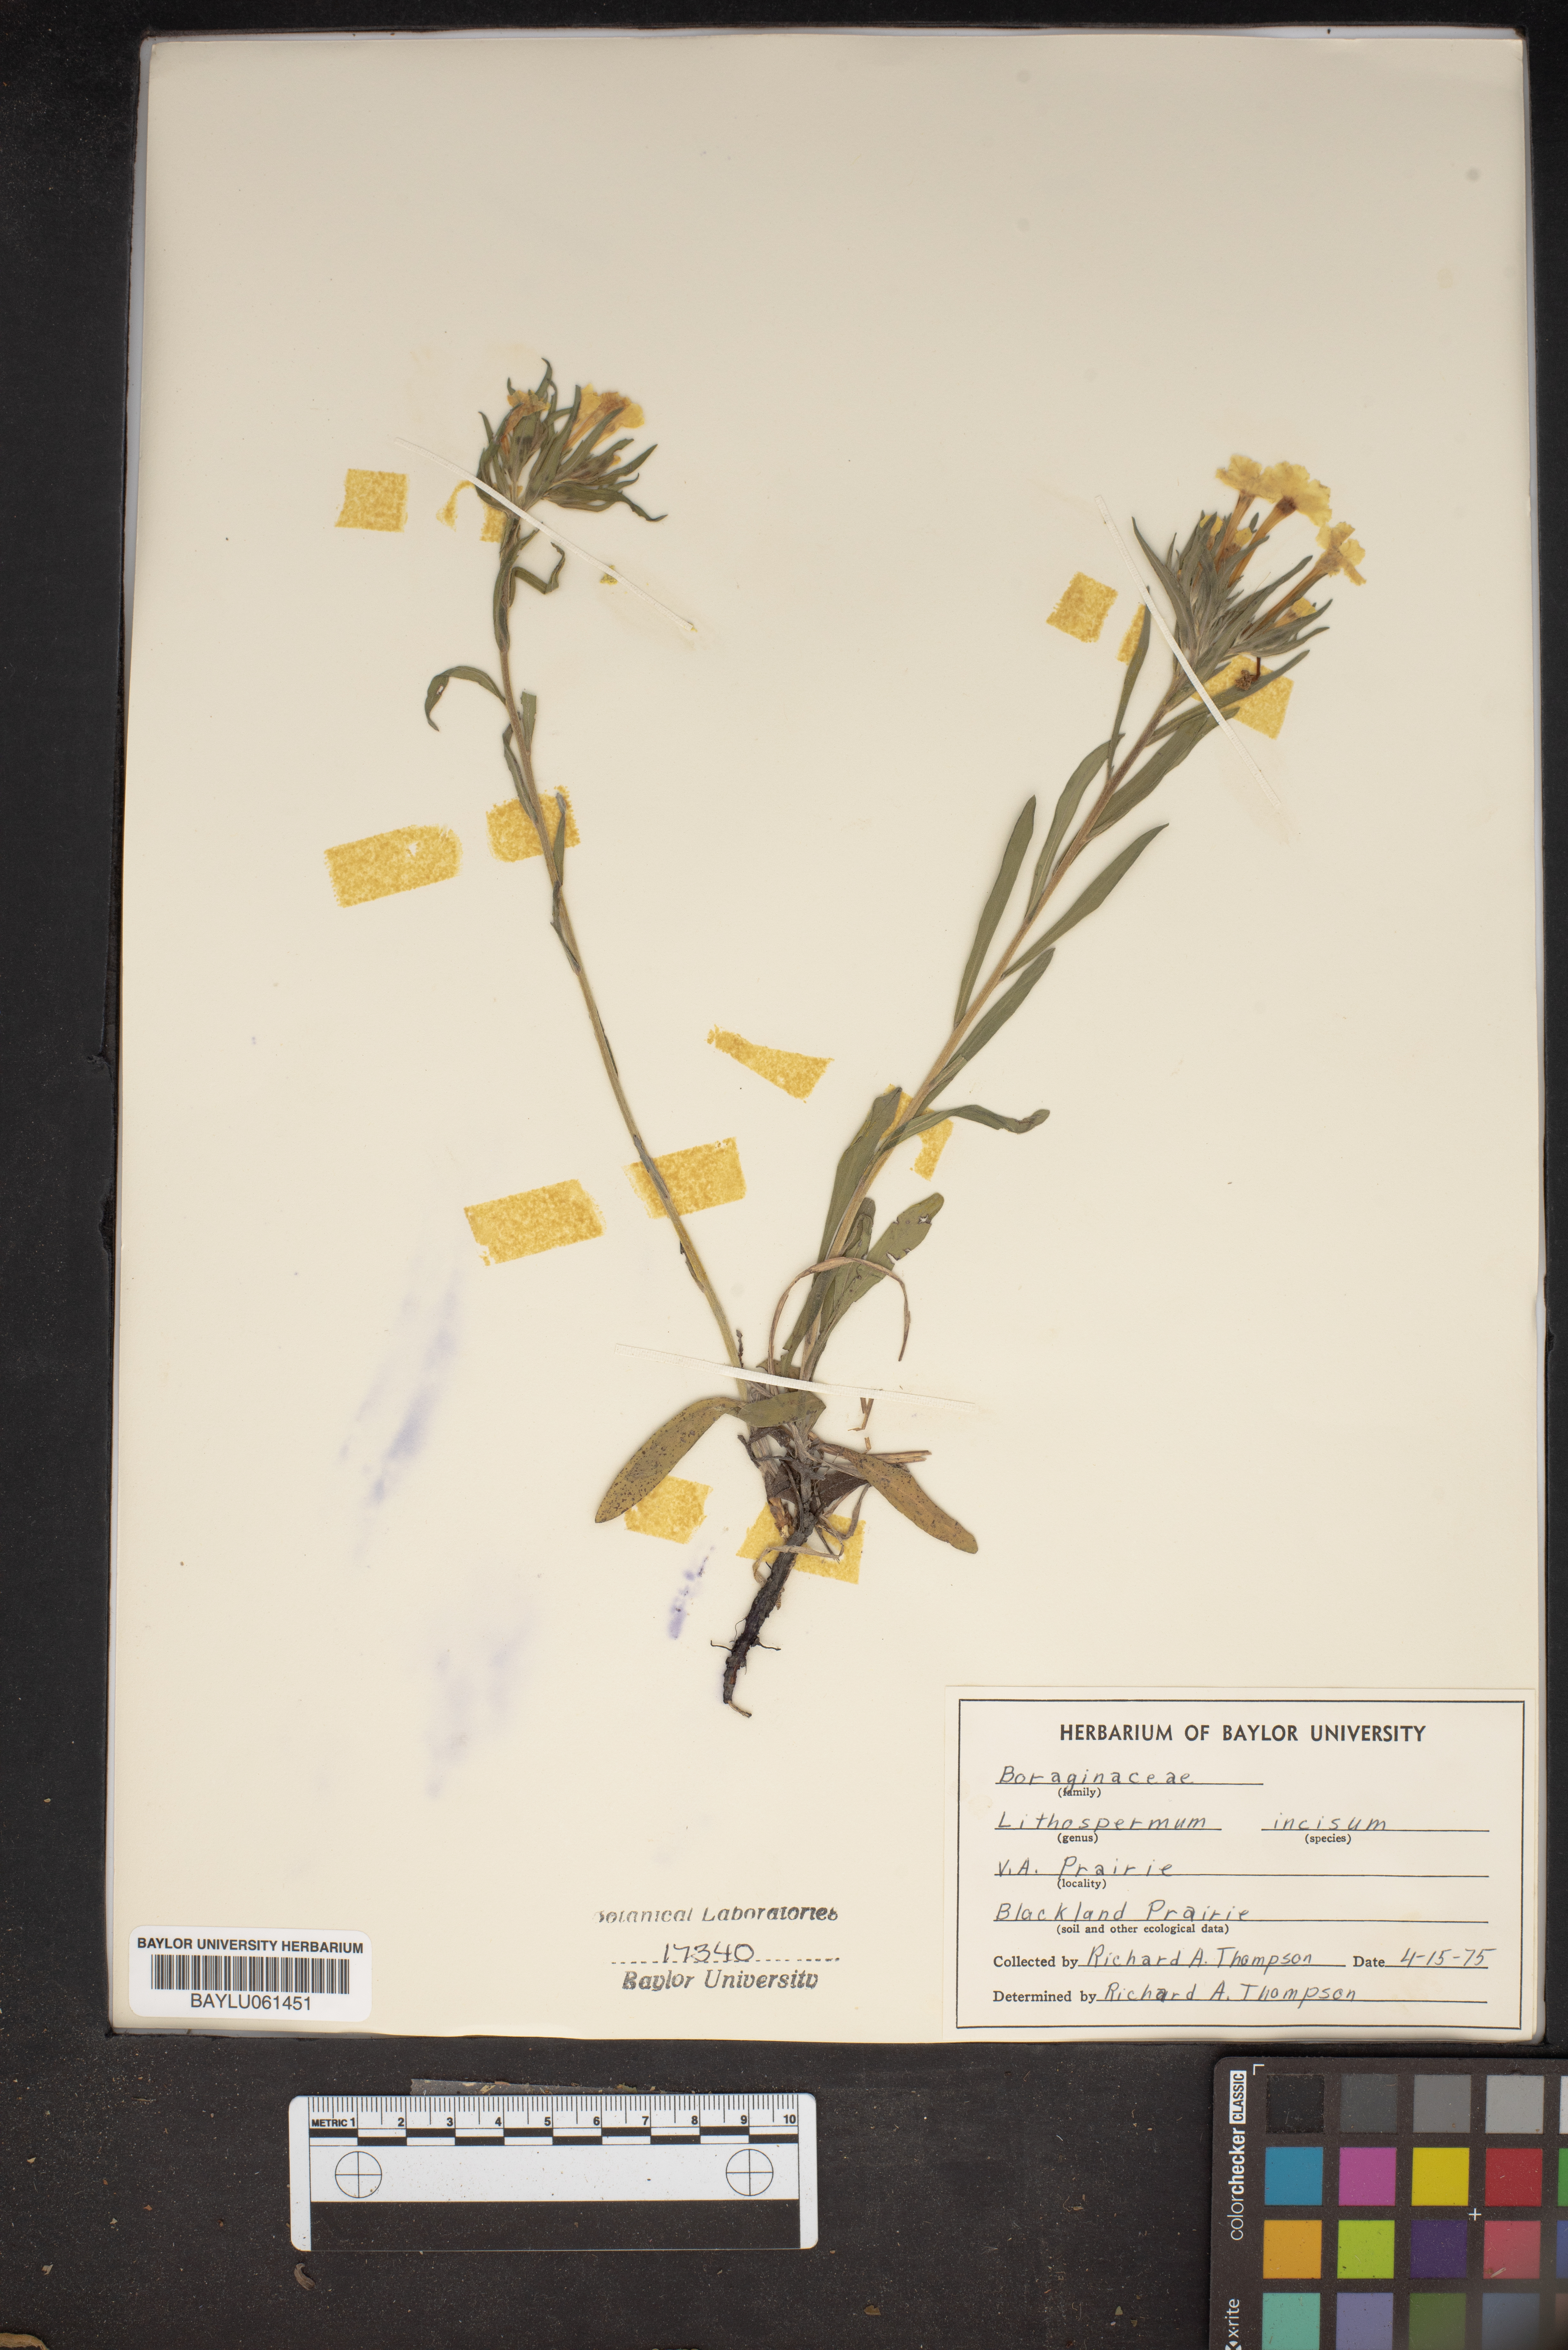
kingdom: Plantae
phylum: Tracheophyta
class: Magnoliopsida
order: Boraginales
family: Boraginaceae
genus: Lithospermum
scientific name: Lithospermum incisum
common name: Fringed gromwell
